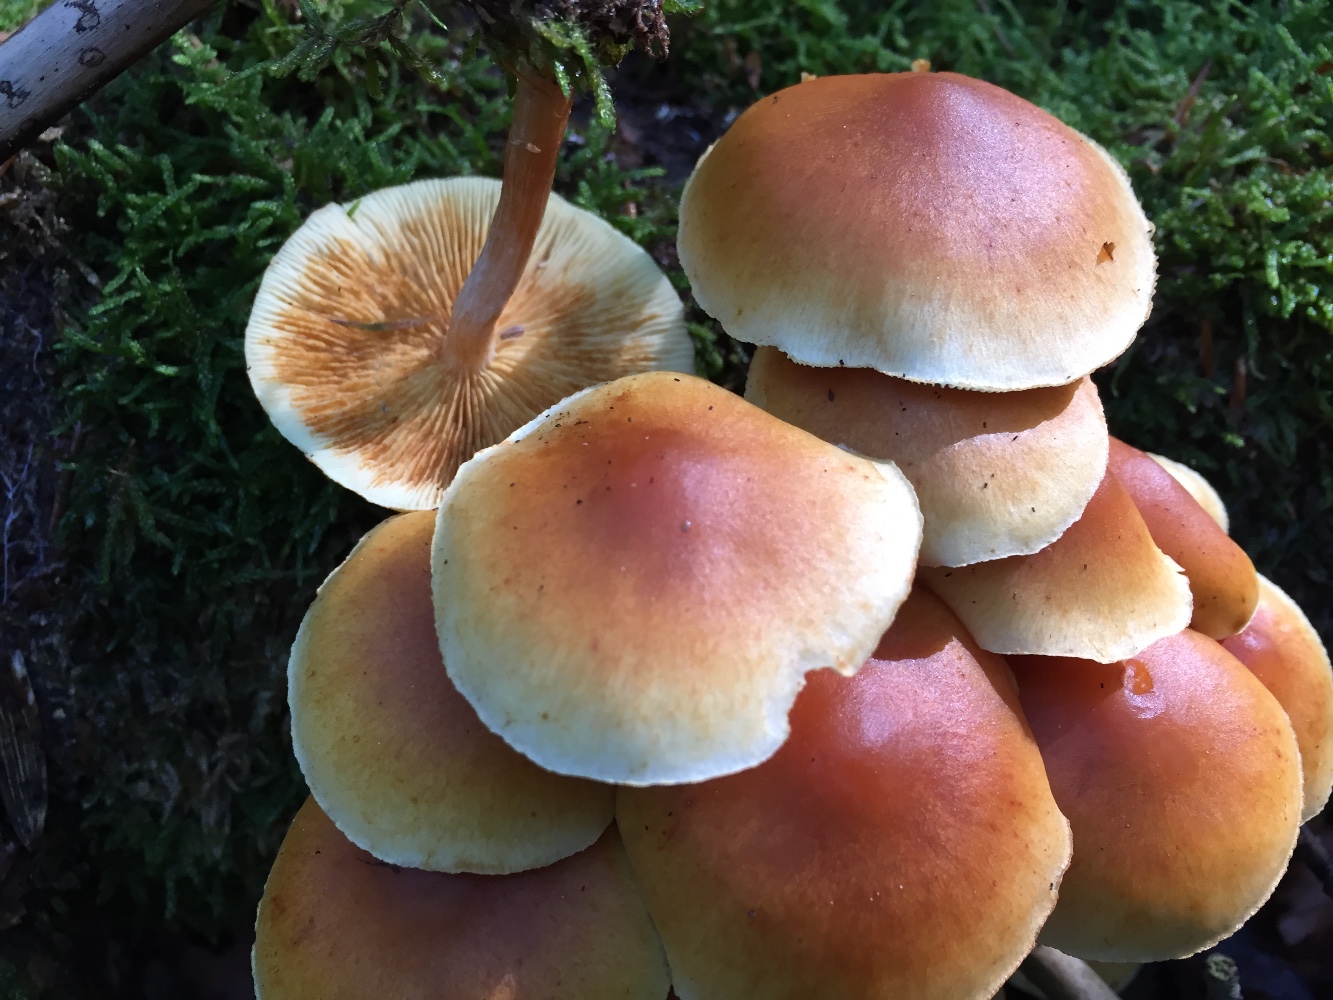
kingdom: Fungi
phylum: Basidiomycota
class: Agaricomycetes
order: Agaricales
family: Hymenogastraceae
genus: Gymnopilus
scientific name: Gymnopilus penetrans
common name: plettet flammehat
